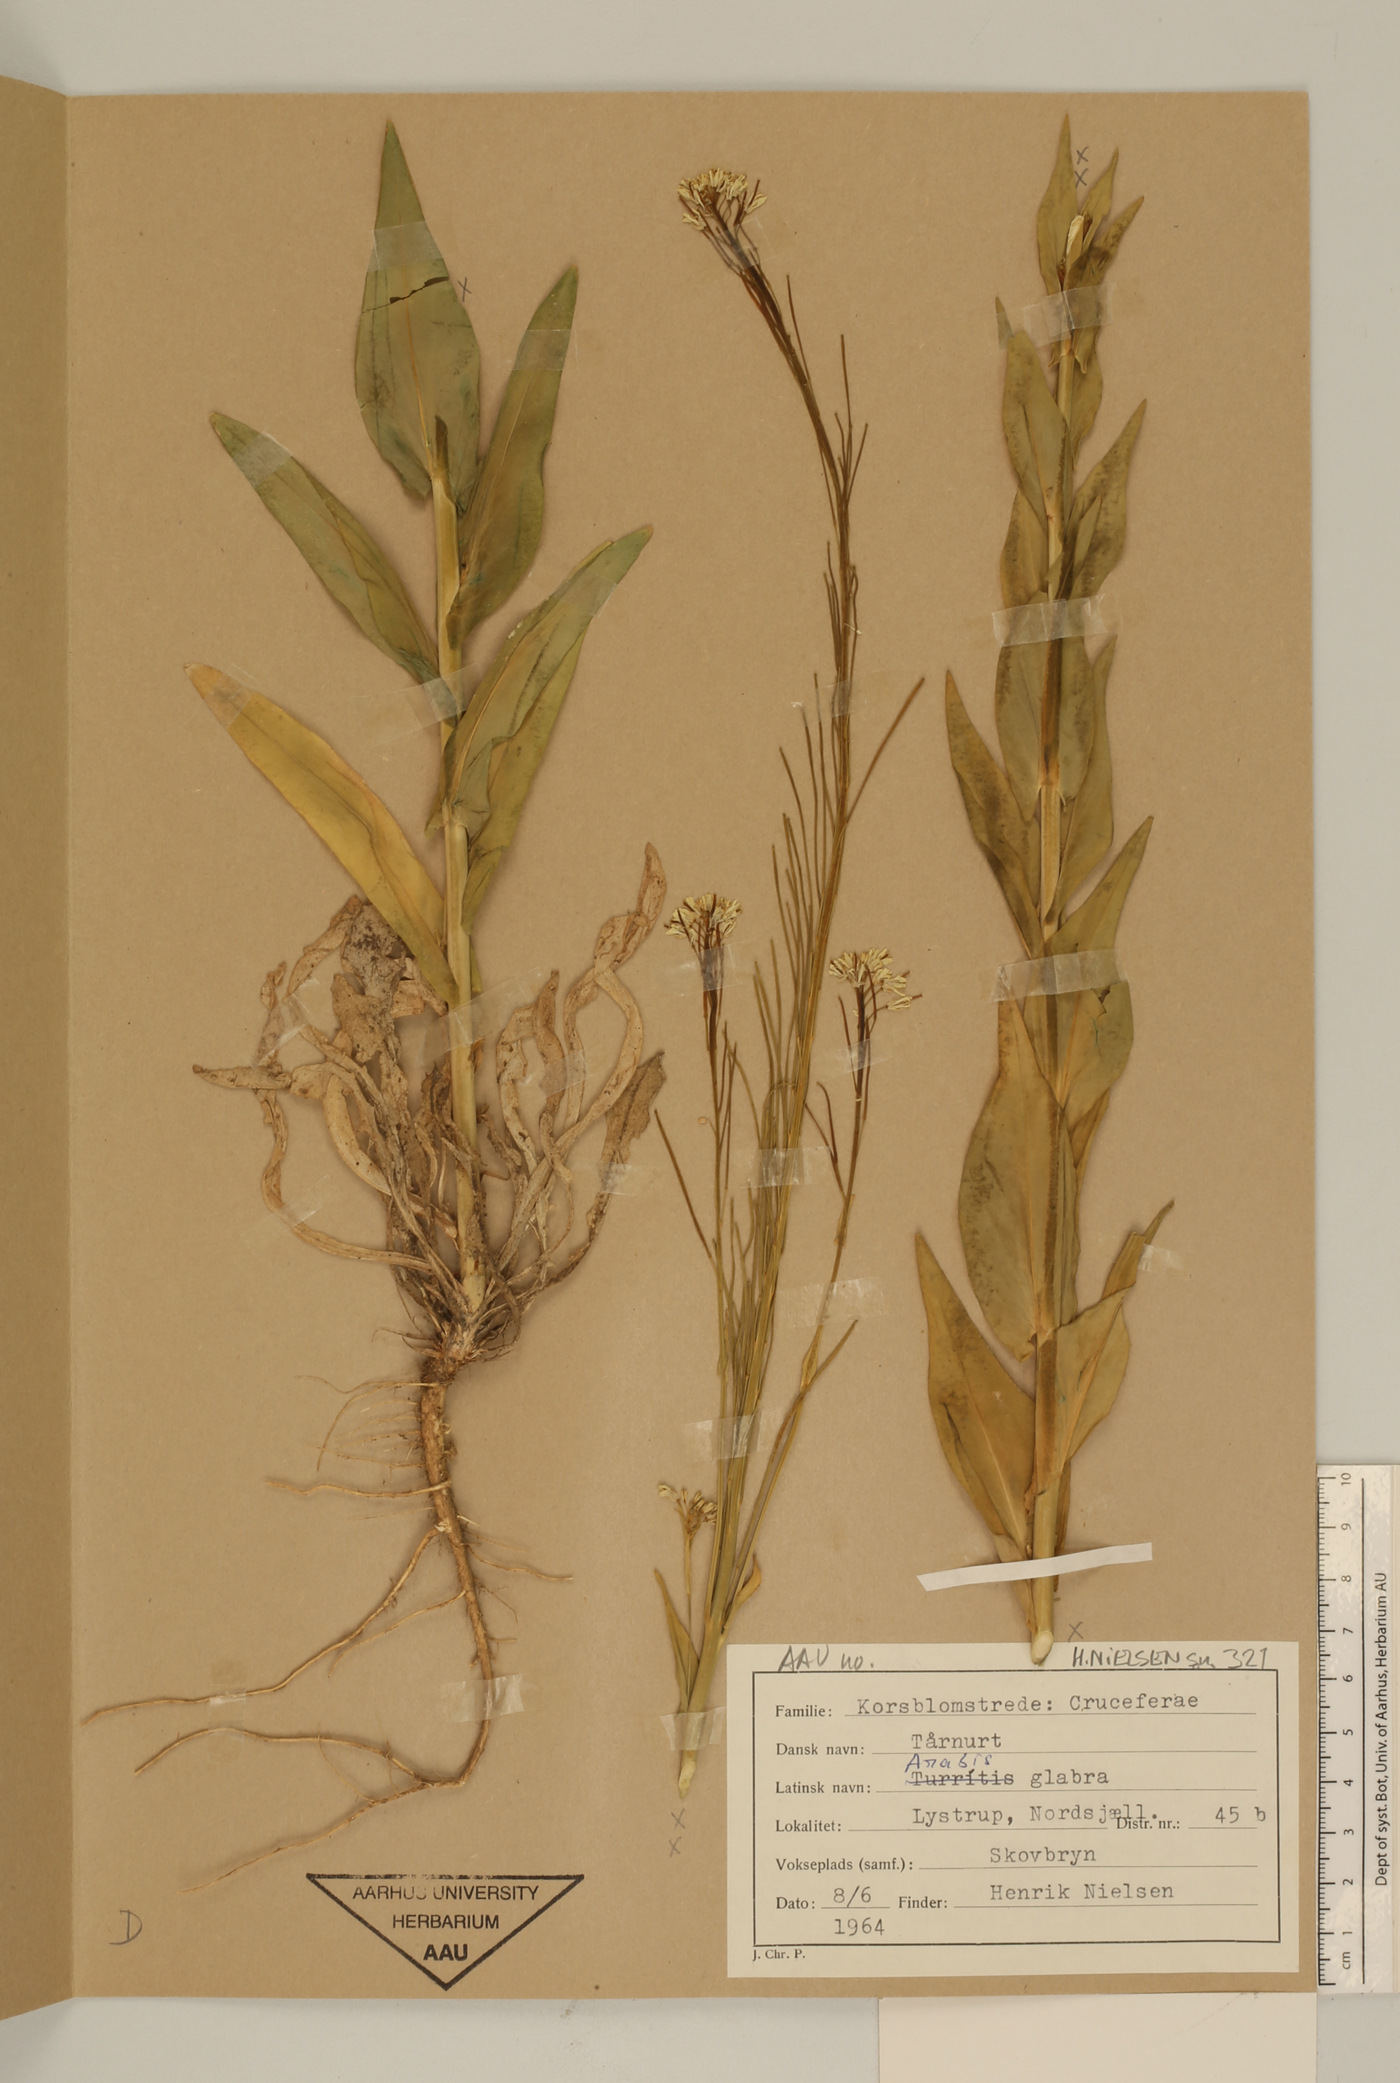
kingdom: Plantae
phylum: Tracheophyta
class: Magnoliopsida
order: Brassicales
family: Brassicaceae
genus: Turritis
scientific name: Turritis glabra
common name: Tower rockcress
